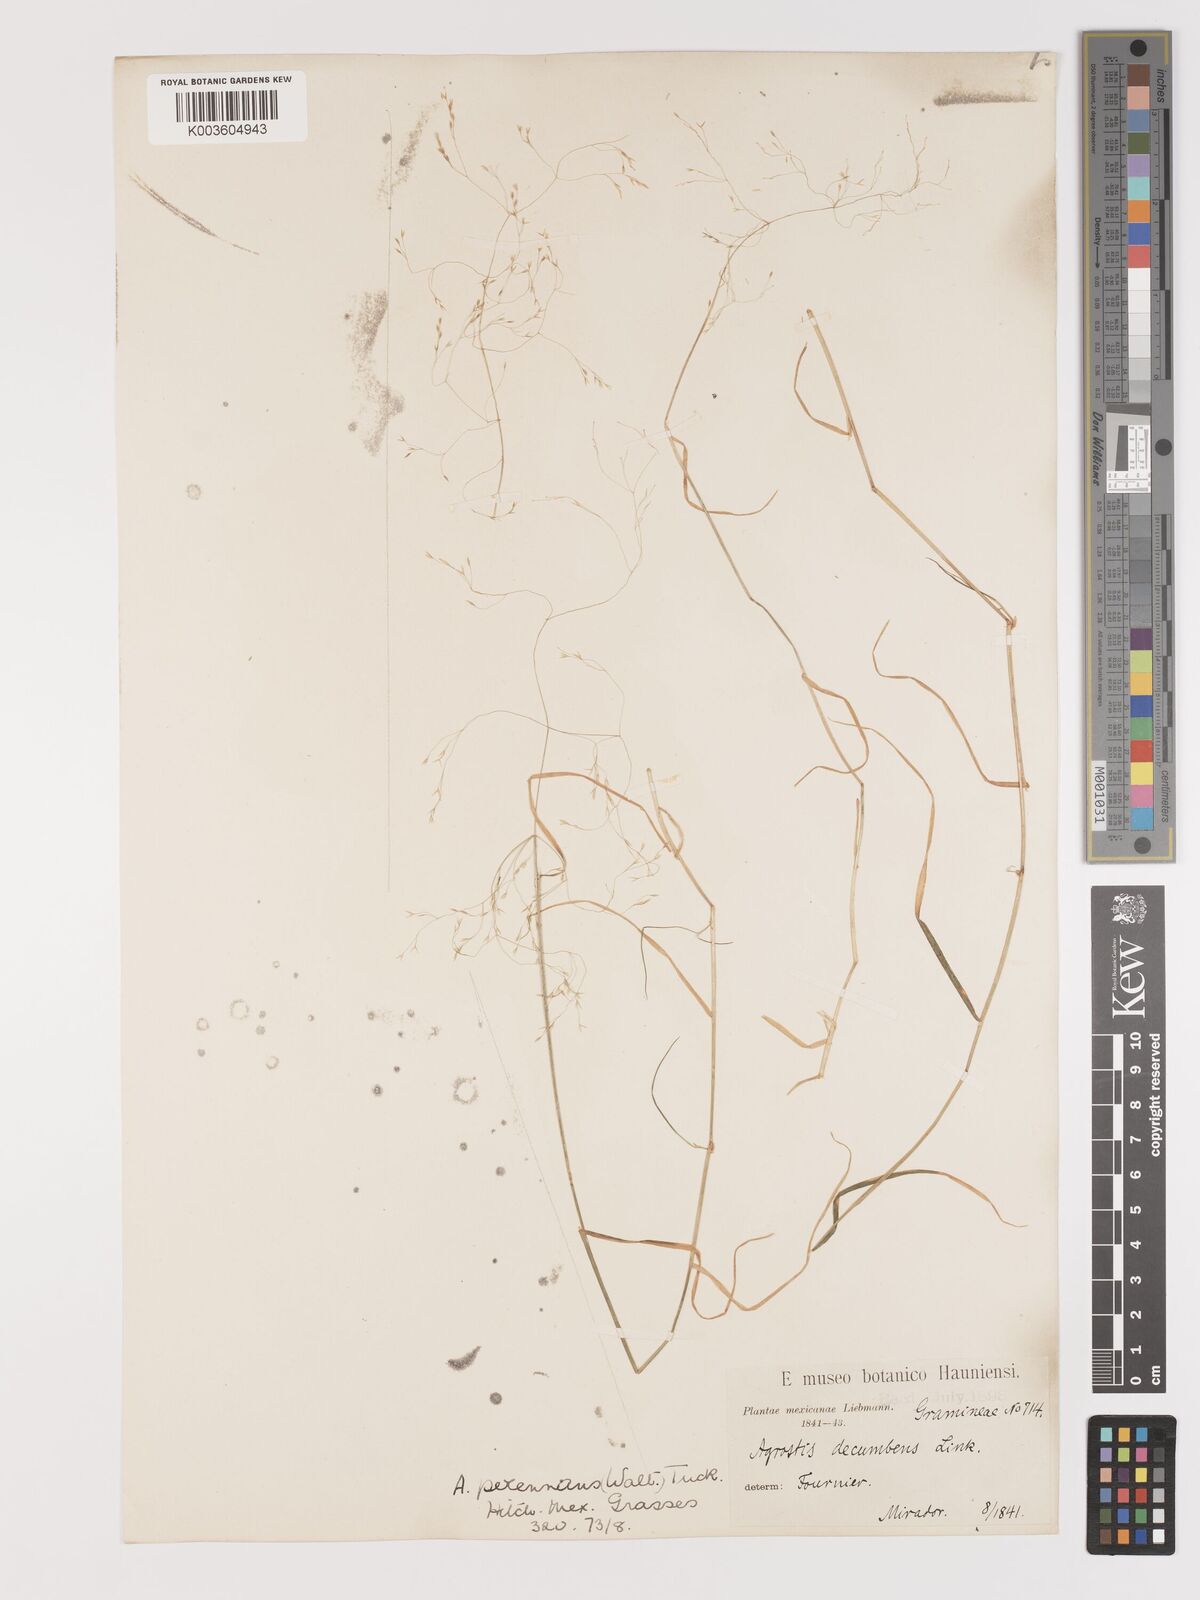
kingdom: Plantae
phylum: Tracheophyta
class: Liliopsida
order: Poales
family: Poaceae
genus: Agrostis
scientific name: Agrostis perennans
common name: Autumn bent
